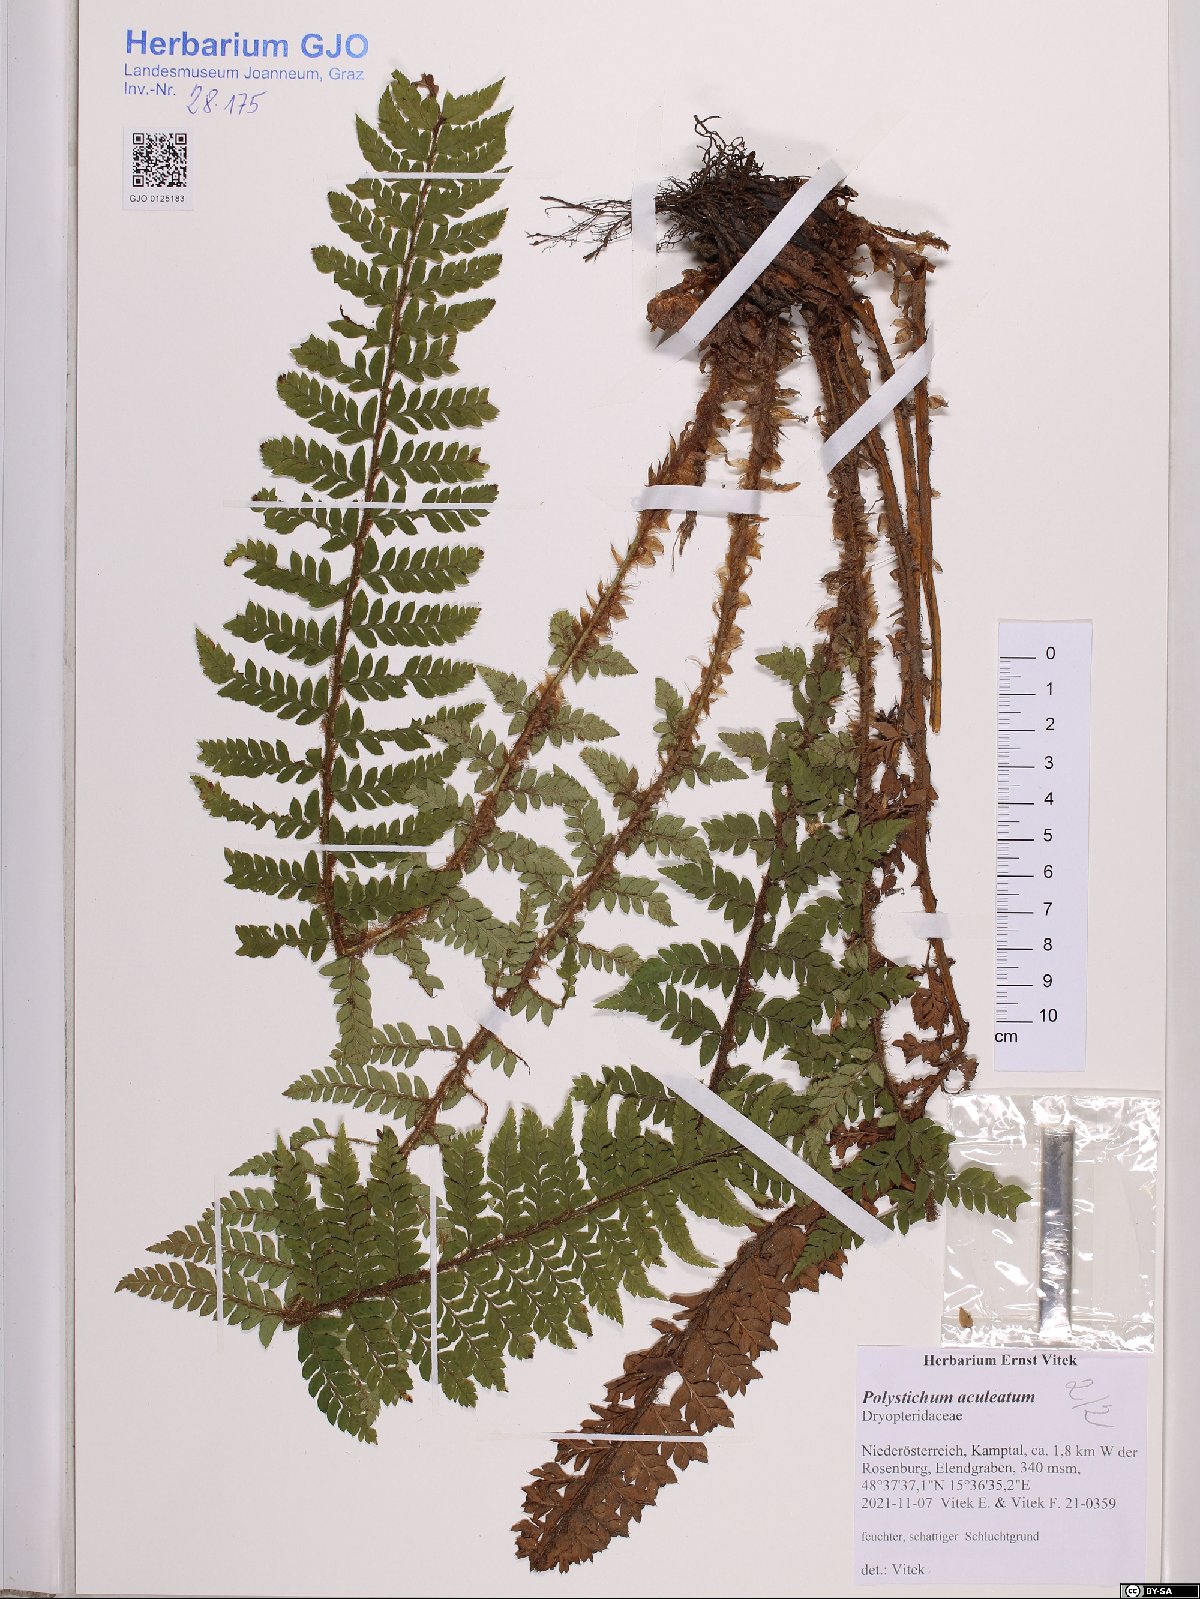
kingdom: Plantae
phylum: Tracheophyta
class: Polypodiopsida
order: Polypodiales
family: Dryopteridaceae
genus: Polystichum
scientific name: Polystichum aculeatum
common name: Hard shield-fern
